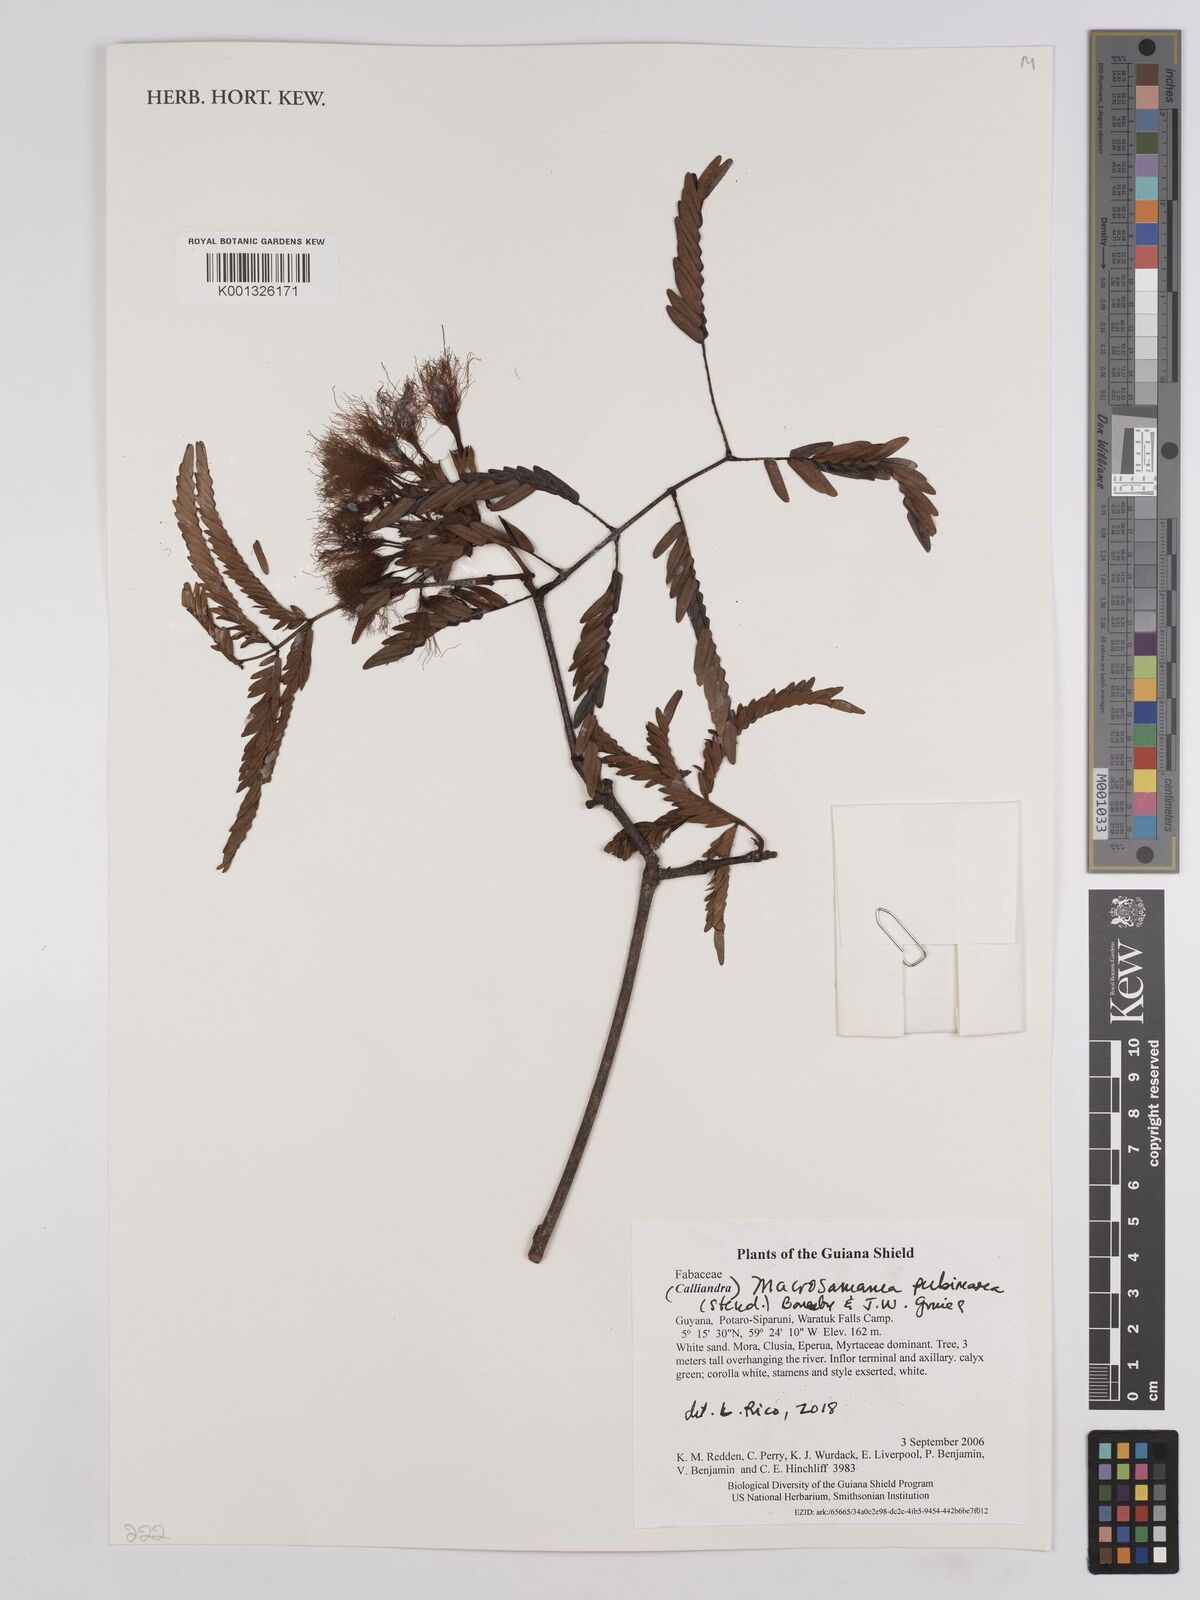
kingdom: Plantae
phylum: Tracheophyta
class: Magnoliopsida
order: Fabales
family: Fabaceae
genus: Macrosamanea
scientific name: Macrosamanea pubiramea
